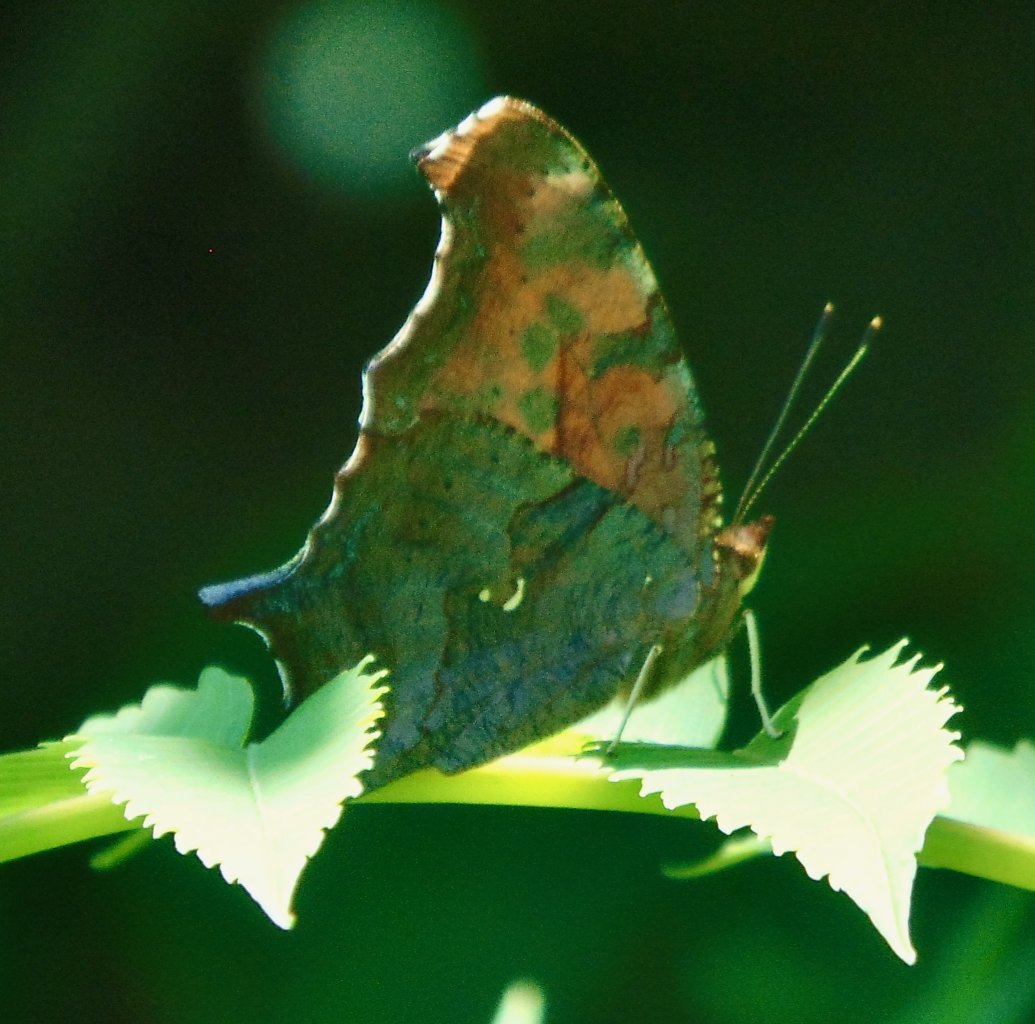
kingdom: Animalia
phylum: Arthropoda
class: Insecta
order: Lepidoptera
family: Nymphalidae
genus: Polygonia
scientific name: Polygonia interrogationis
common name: Question Mark
